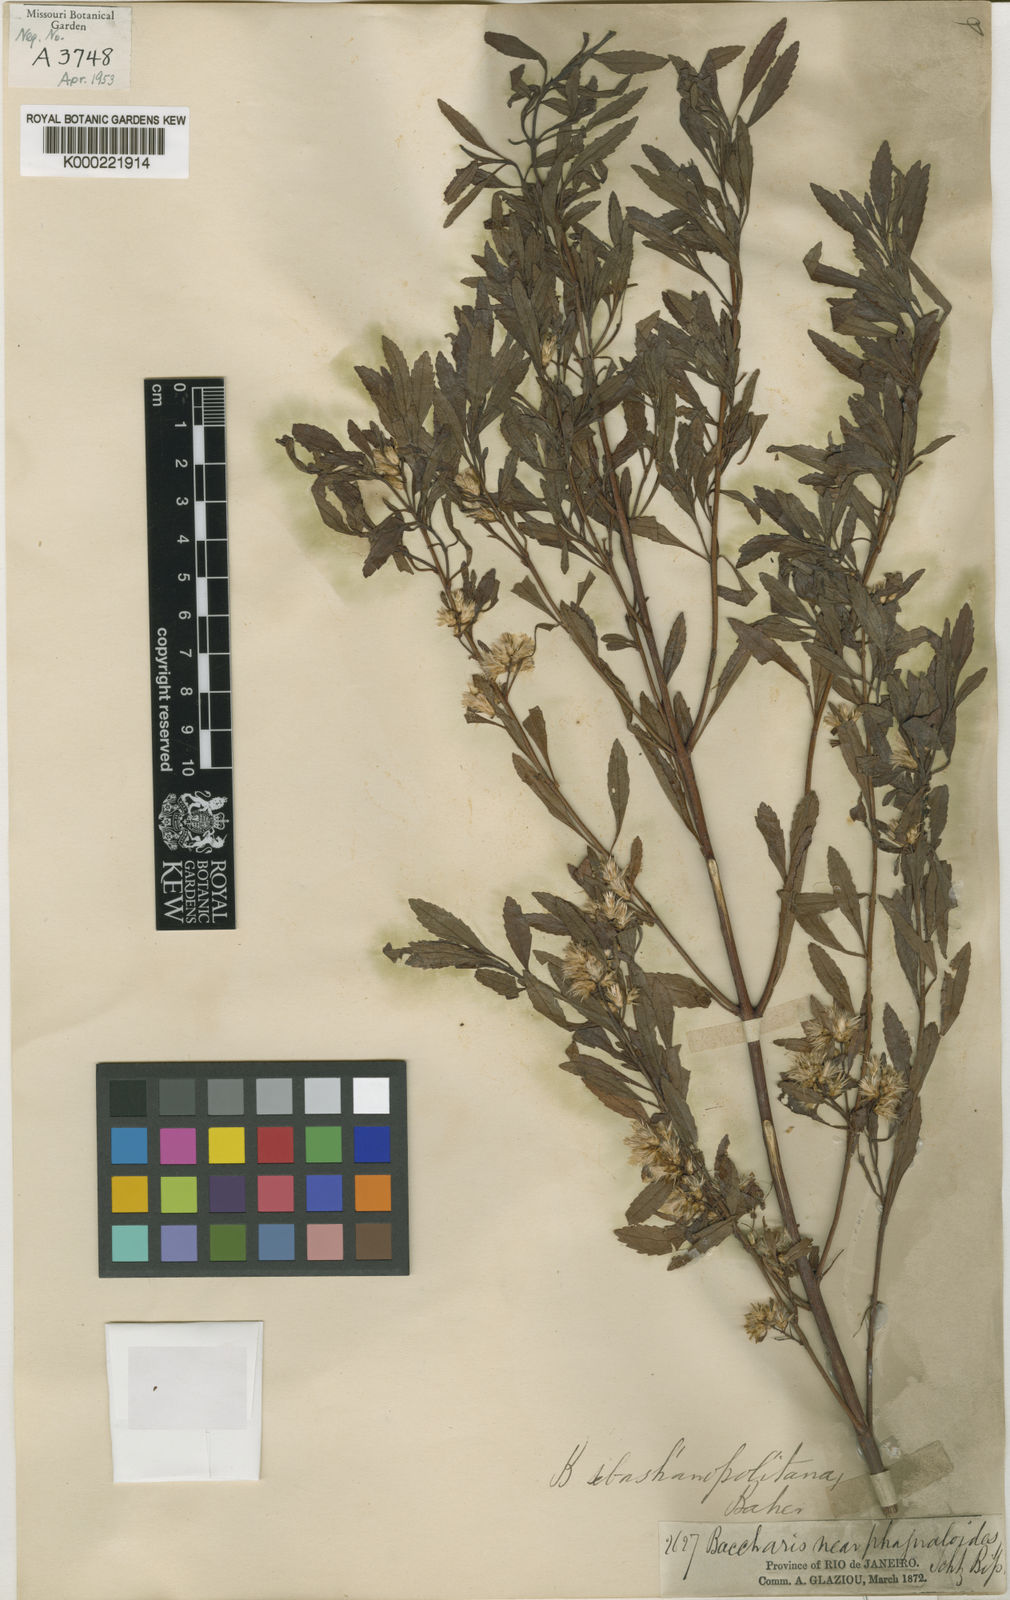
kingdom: Plantae
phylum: Tracheophyta
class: Magnoliopsida
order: Asterales
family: Asteraceae
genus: Baccharis
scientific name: Baccharis microdonta
